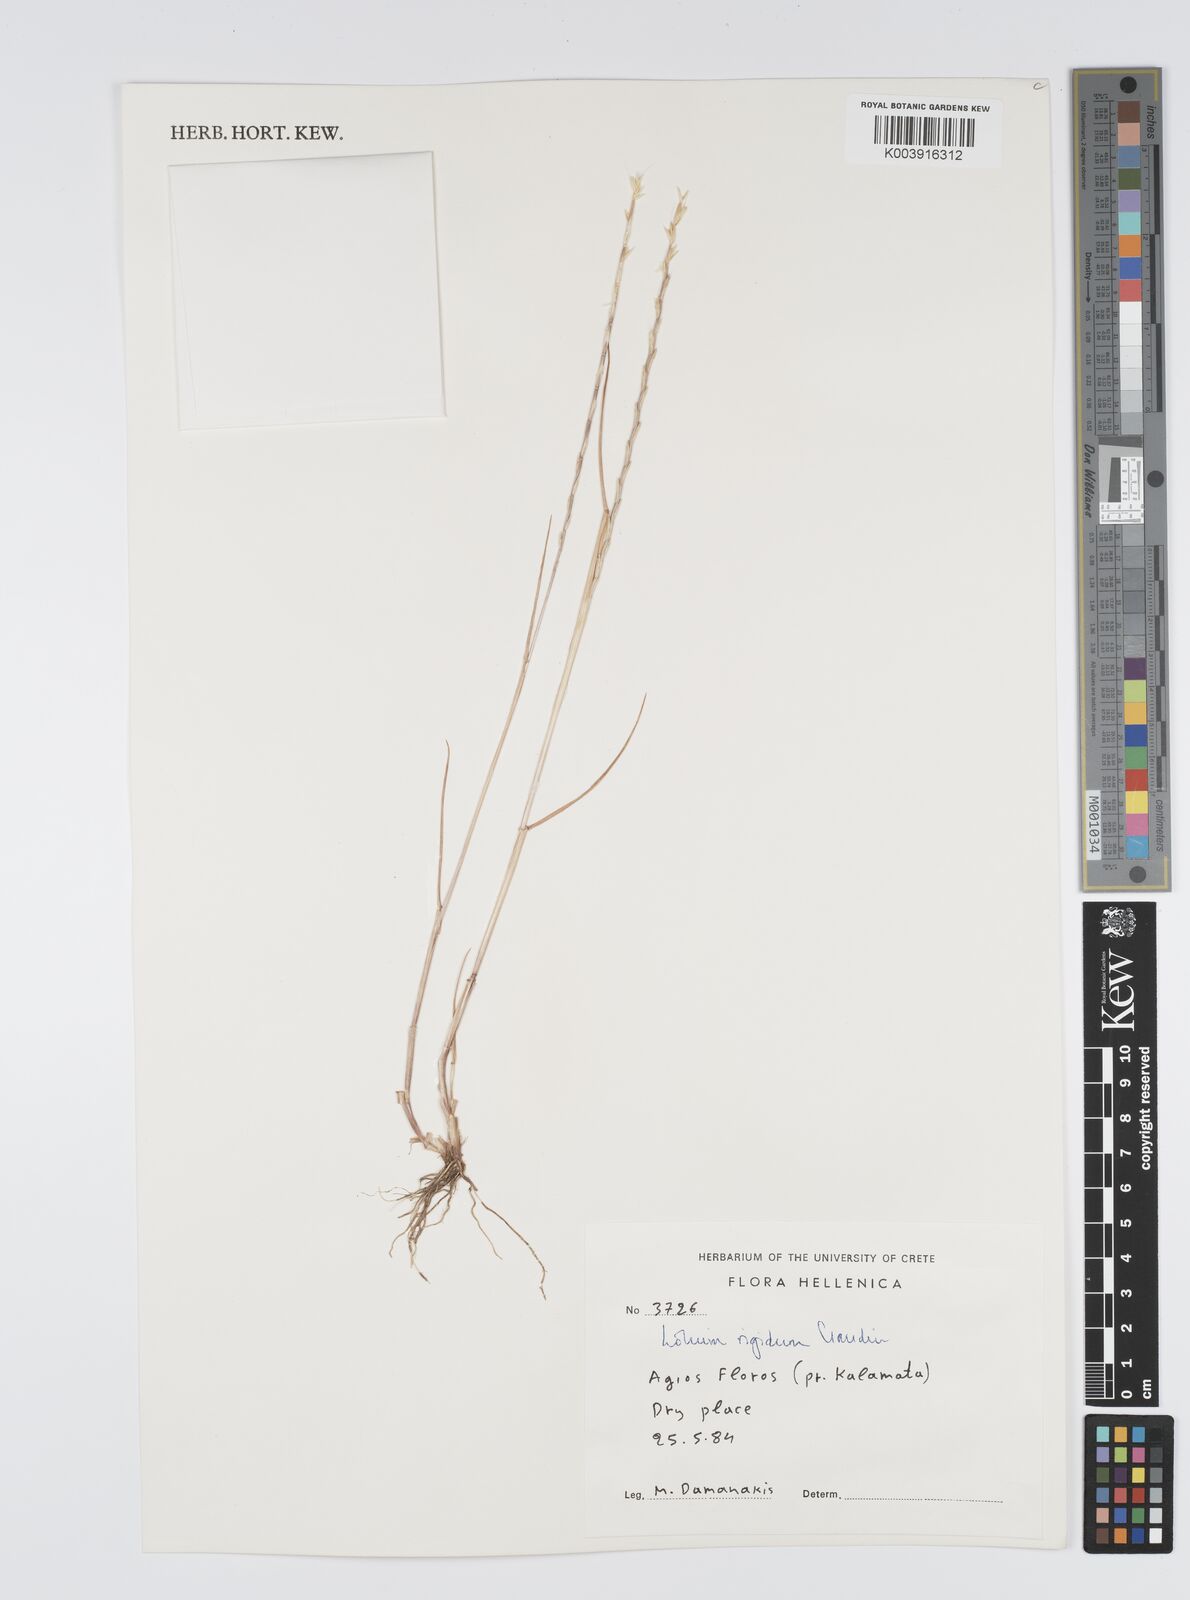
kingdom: Plantae
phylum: Tracheophyta
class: Liliopsida
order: Poales
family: Poaceae
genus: Lolium
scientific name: Lolium rigidum
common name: Wimmera ryegrass
